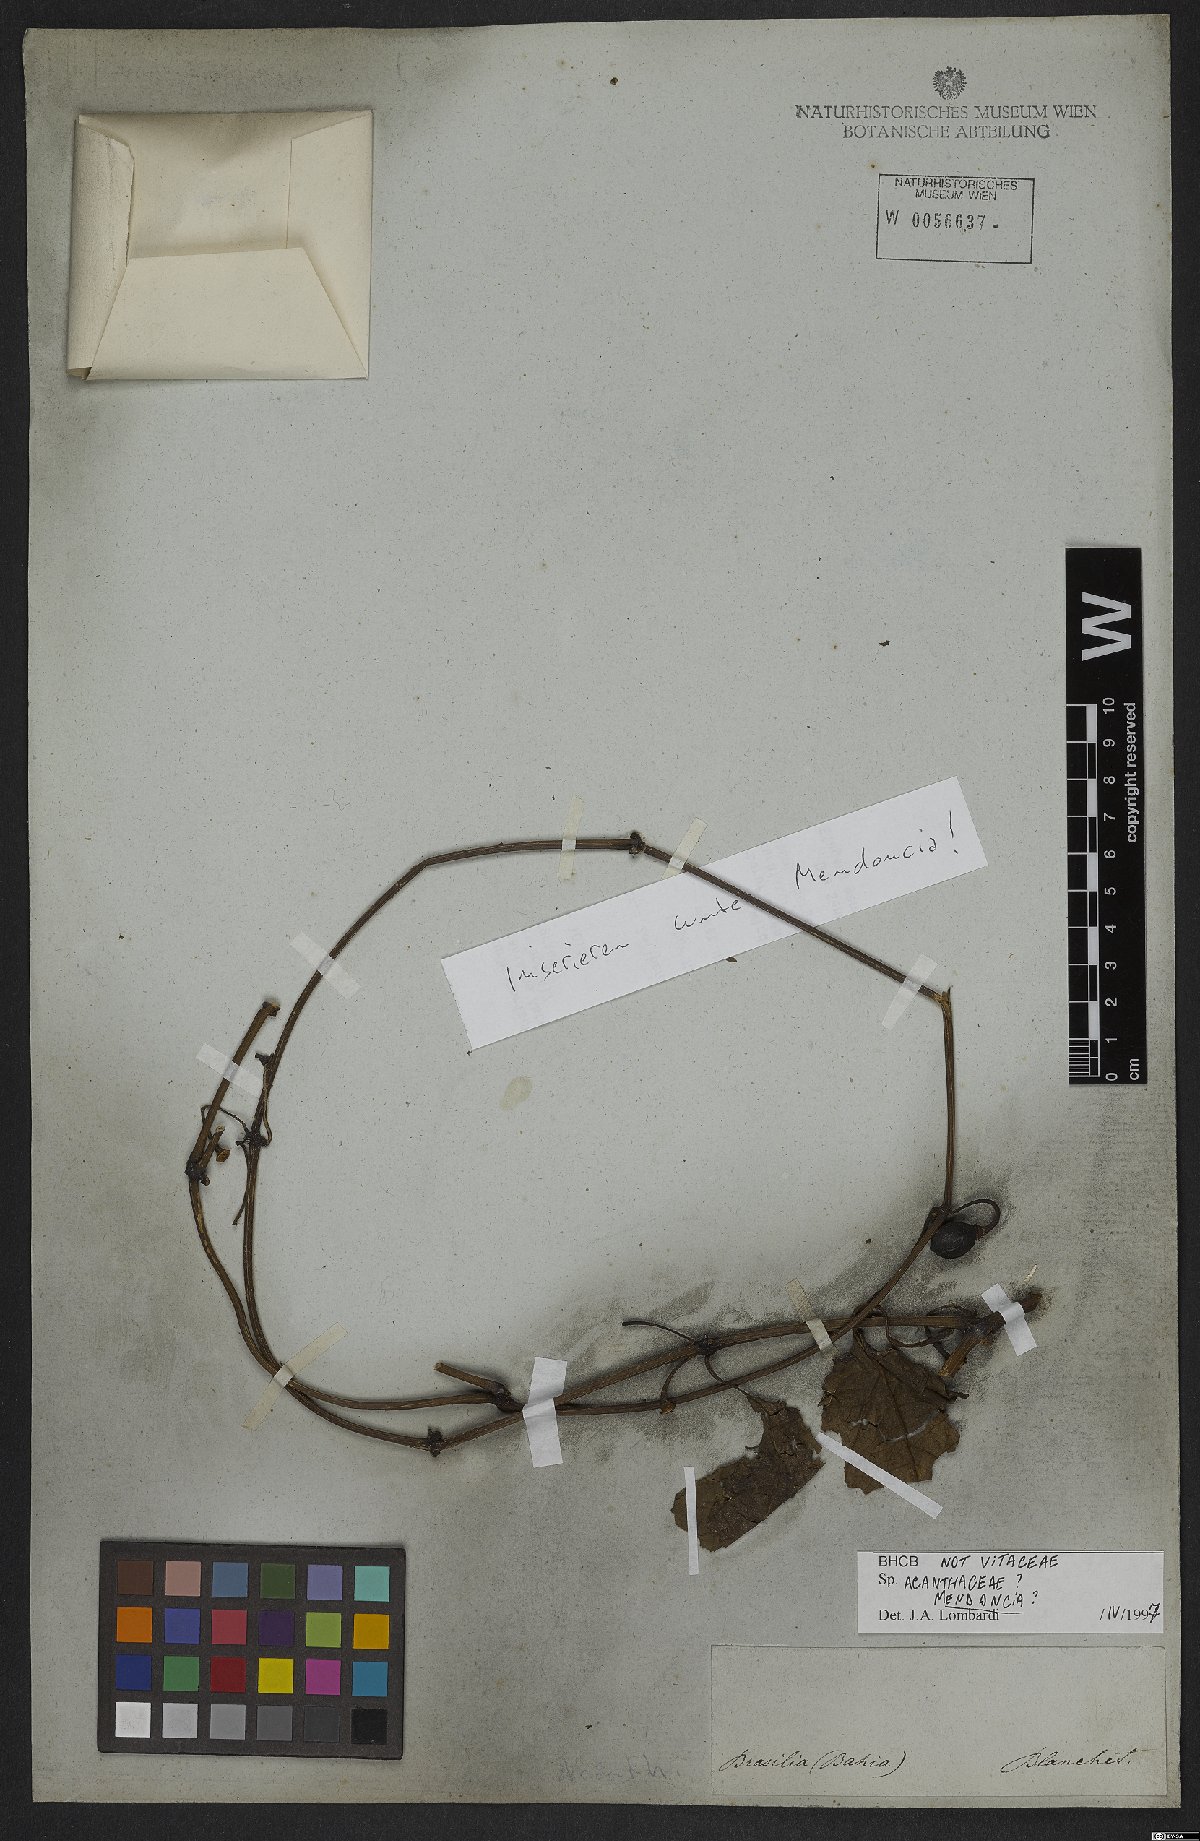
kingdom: Plantae
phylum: Tracheophyta
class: Magnoliopsida
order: Lamiales
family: Acanthaceae
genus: Mendoncia
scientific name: Mendoncia
